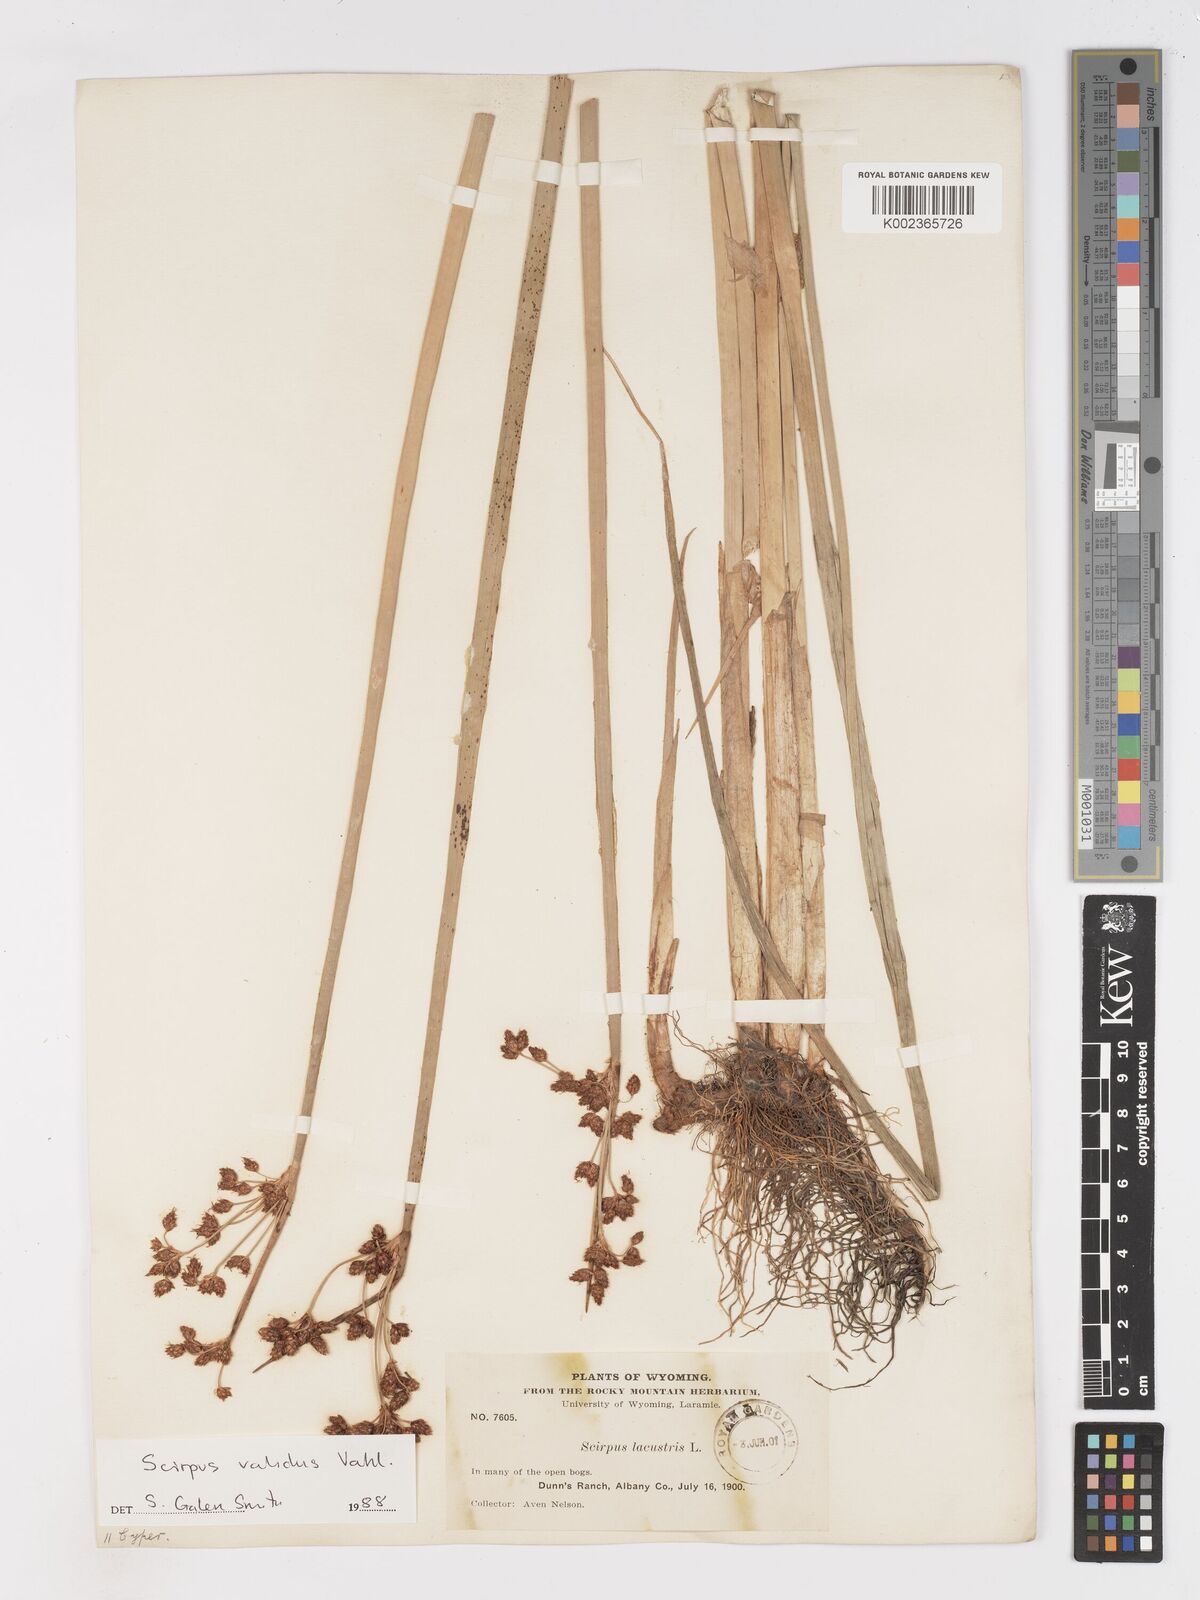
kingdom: Plantae
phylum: Tracheophyta
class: Liliopsida
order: Poales
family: Cyperaceae
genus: Schoenoplectus
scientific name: Schoenoplectus lacustris
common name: Common club-rush
